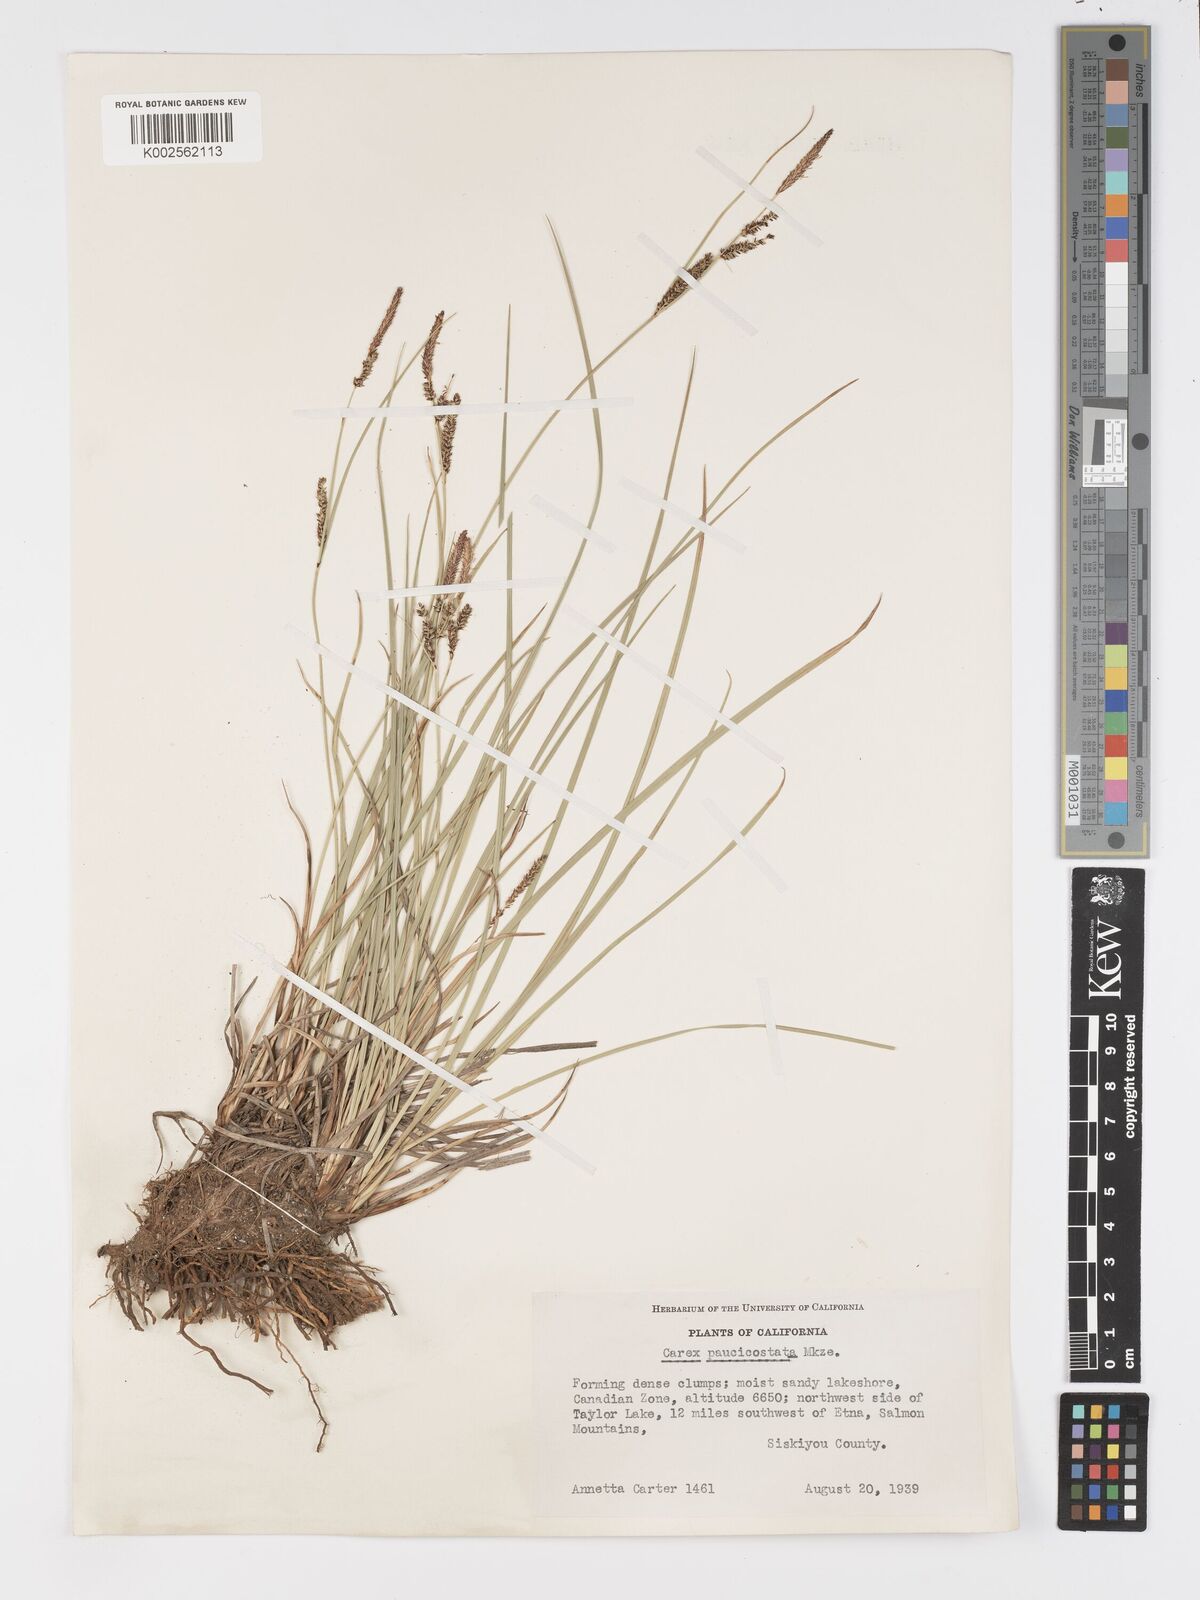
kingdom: Plantae
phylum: Tracheophyta
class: Liliopsida
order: Poales
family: Cyperaceae
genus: Carex
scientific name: Carex kelloggii
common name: Kellogg's sedge
